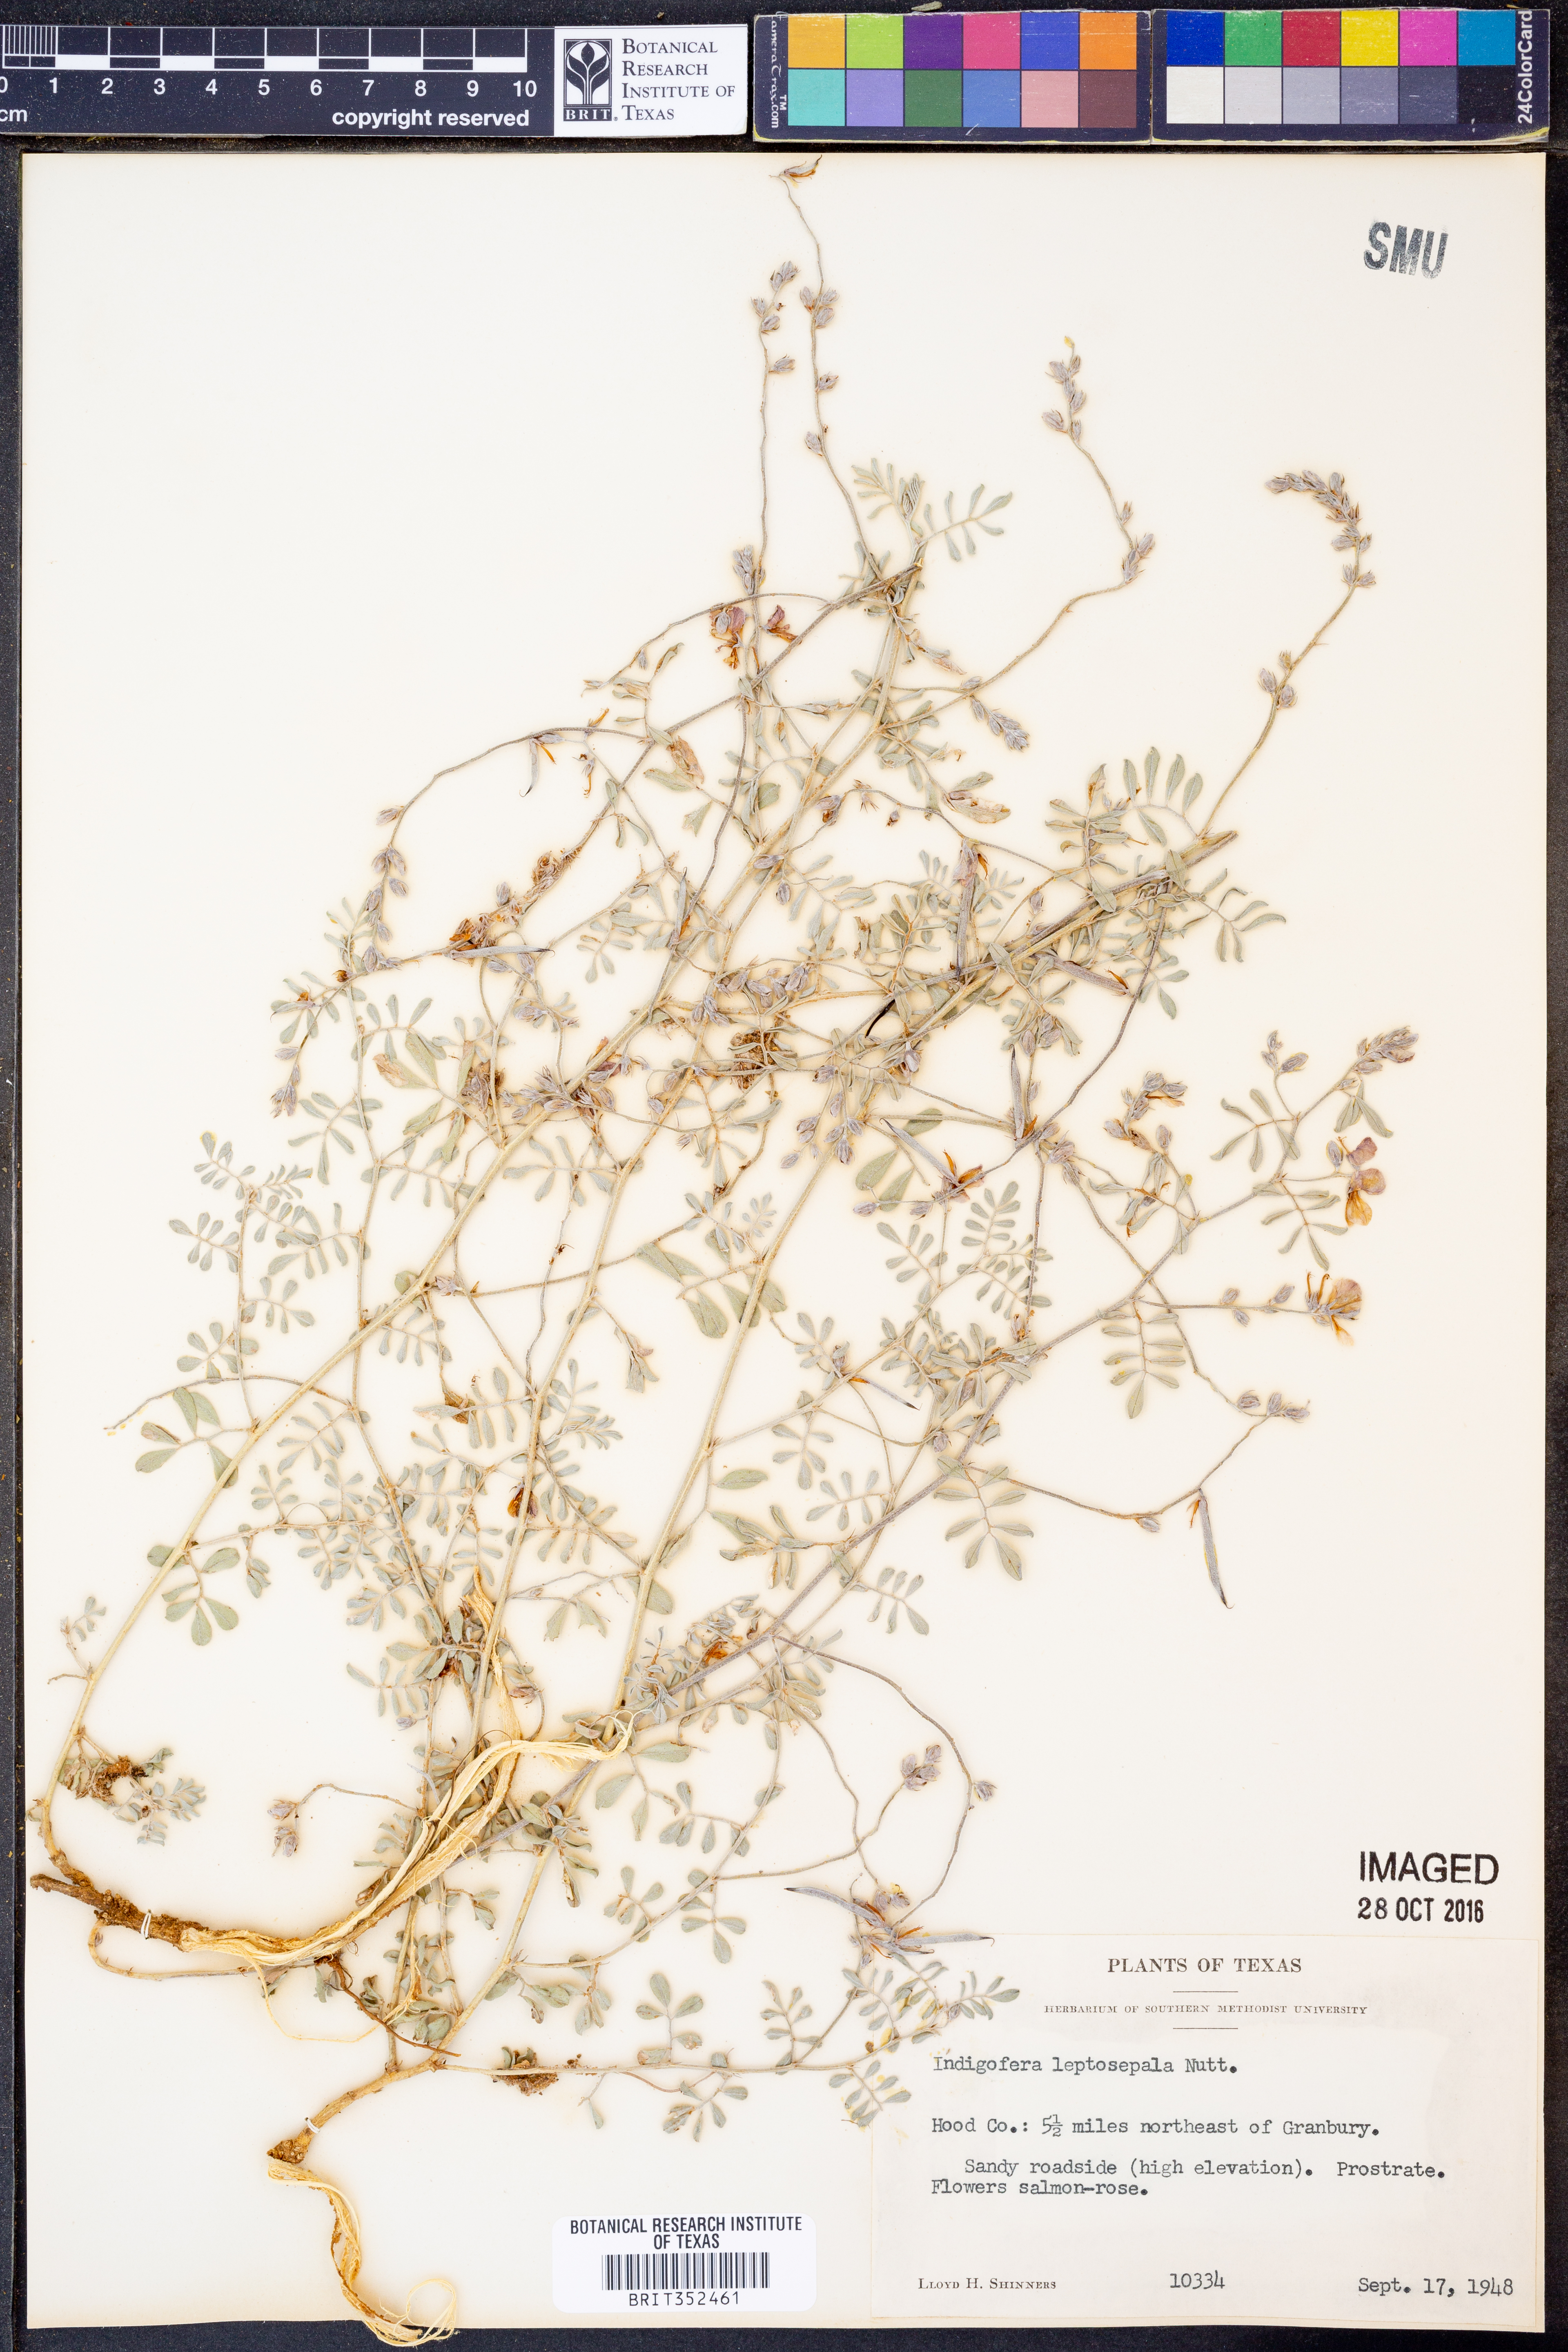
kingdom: Plantae
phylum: Tracheophyta
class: Magnoliopsida
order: Fabales
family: Fabaceae
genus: Indigofera
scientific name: Indigofera argutidens
